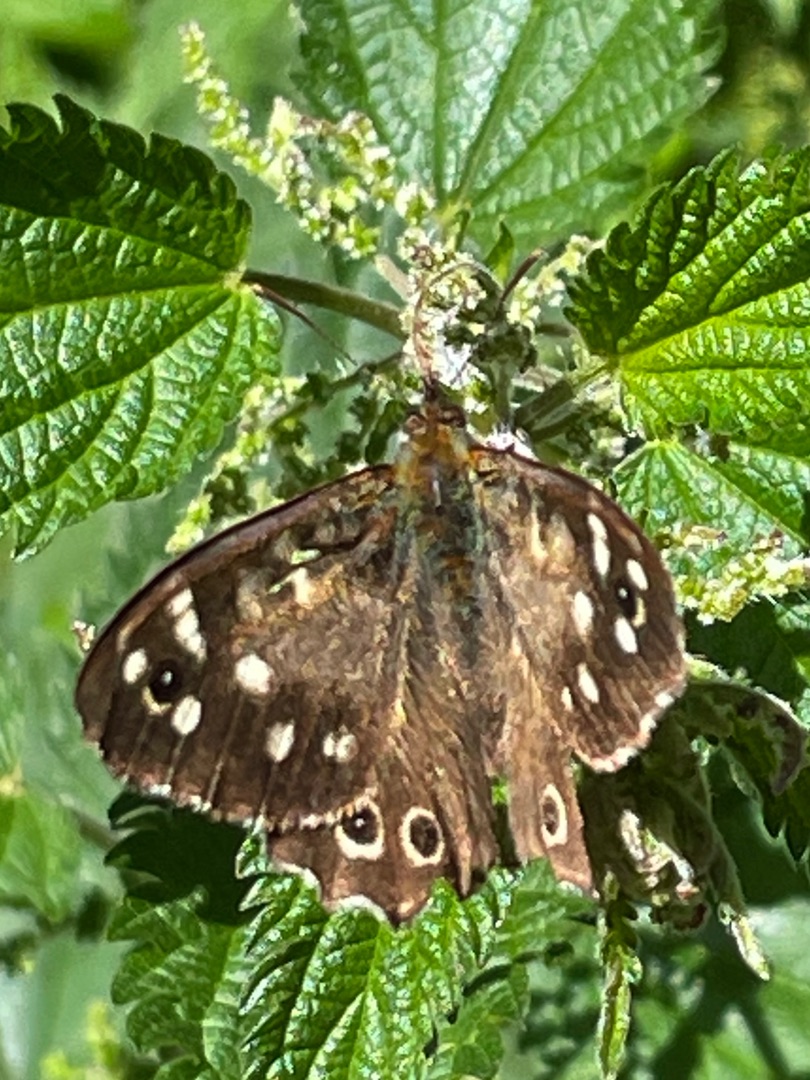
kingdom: Animalia
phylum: Arthropoda
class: Insecta
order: Lepidoptera
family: Nymphalidae
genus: Pararge
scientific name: Pararge aegeria
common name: Skovrandøje
